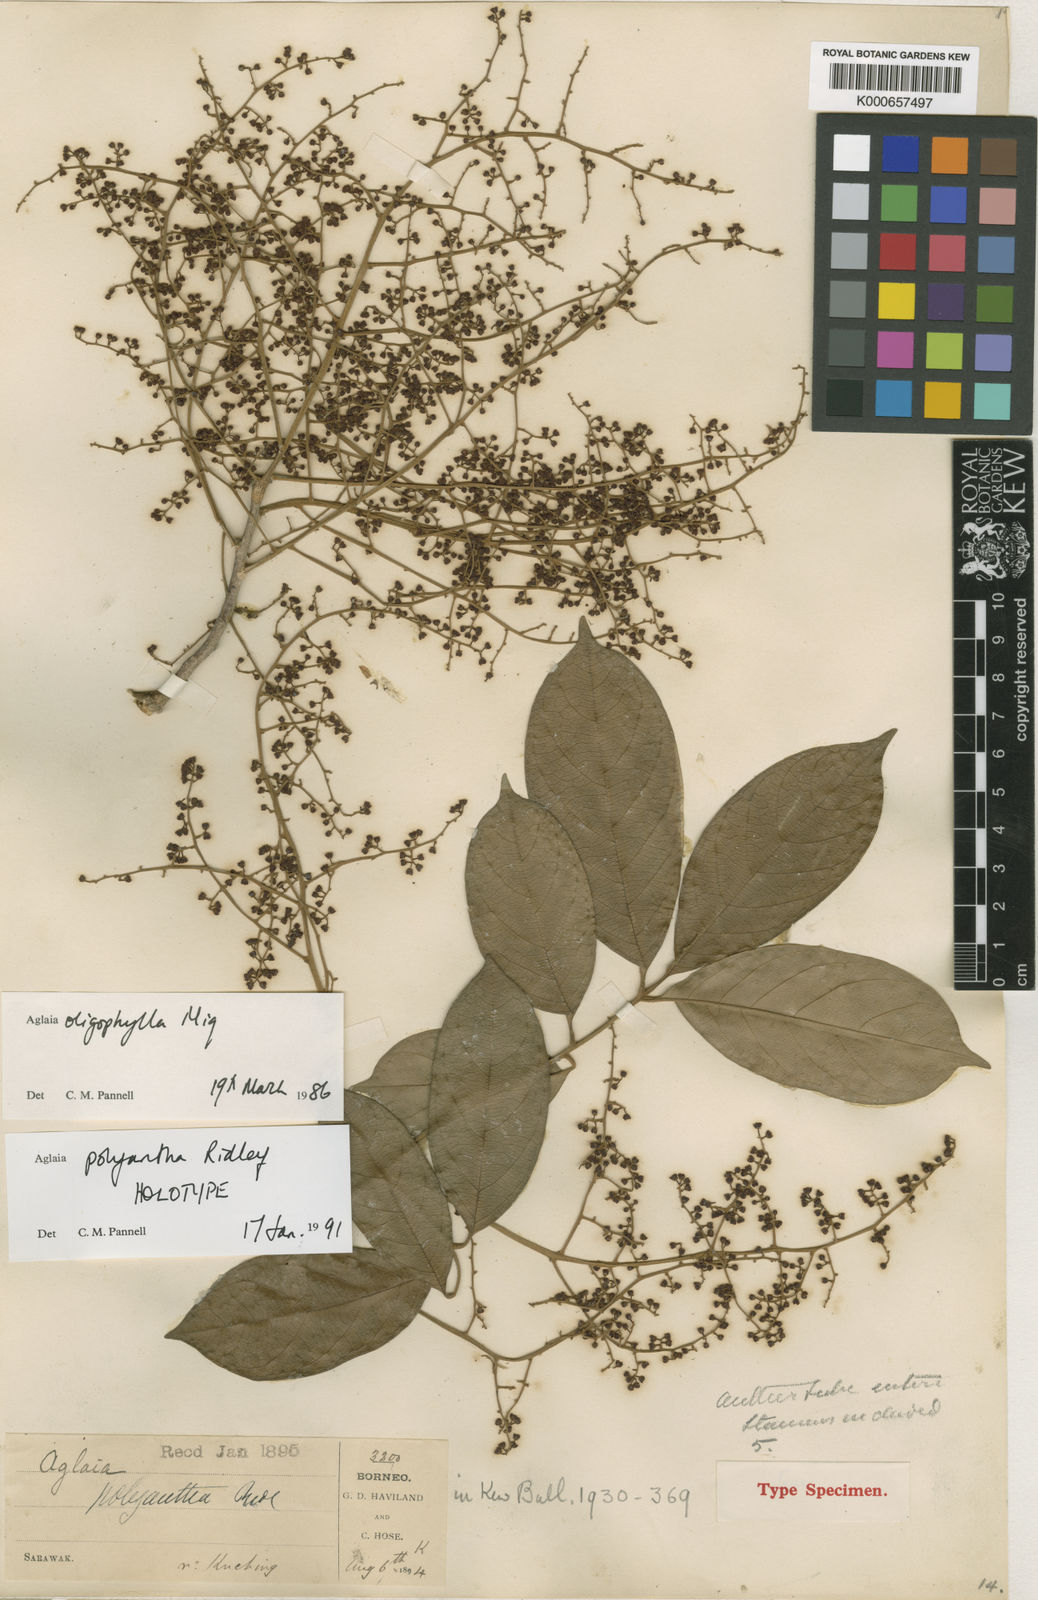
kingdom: Plantae
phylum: Tracheophyta
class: Magnoliopsida
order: Sapindales
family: Meliaceae
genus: Aglaia
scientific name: Aglaia oligophylla
